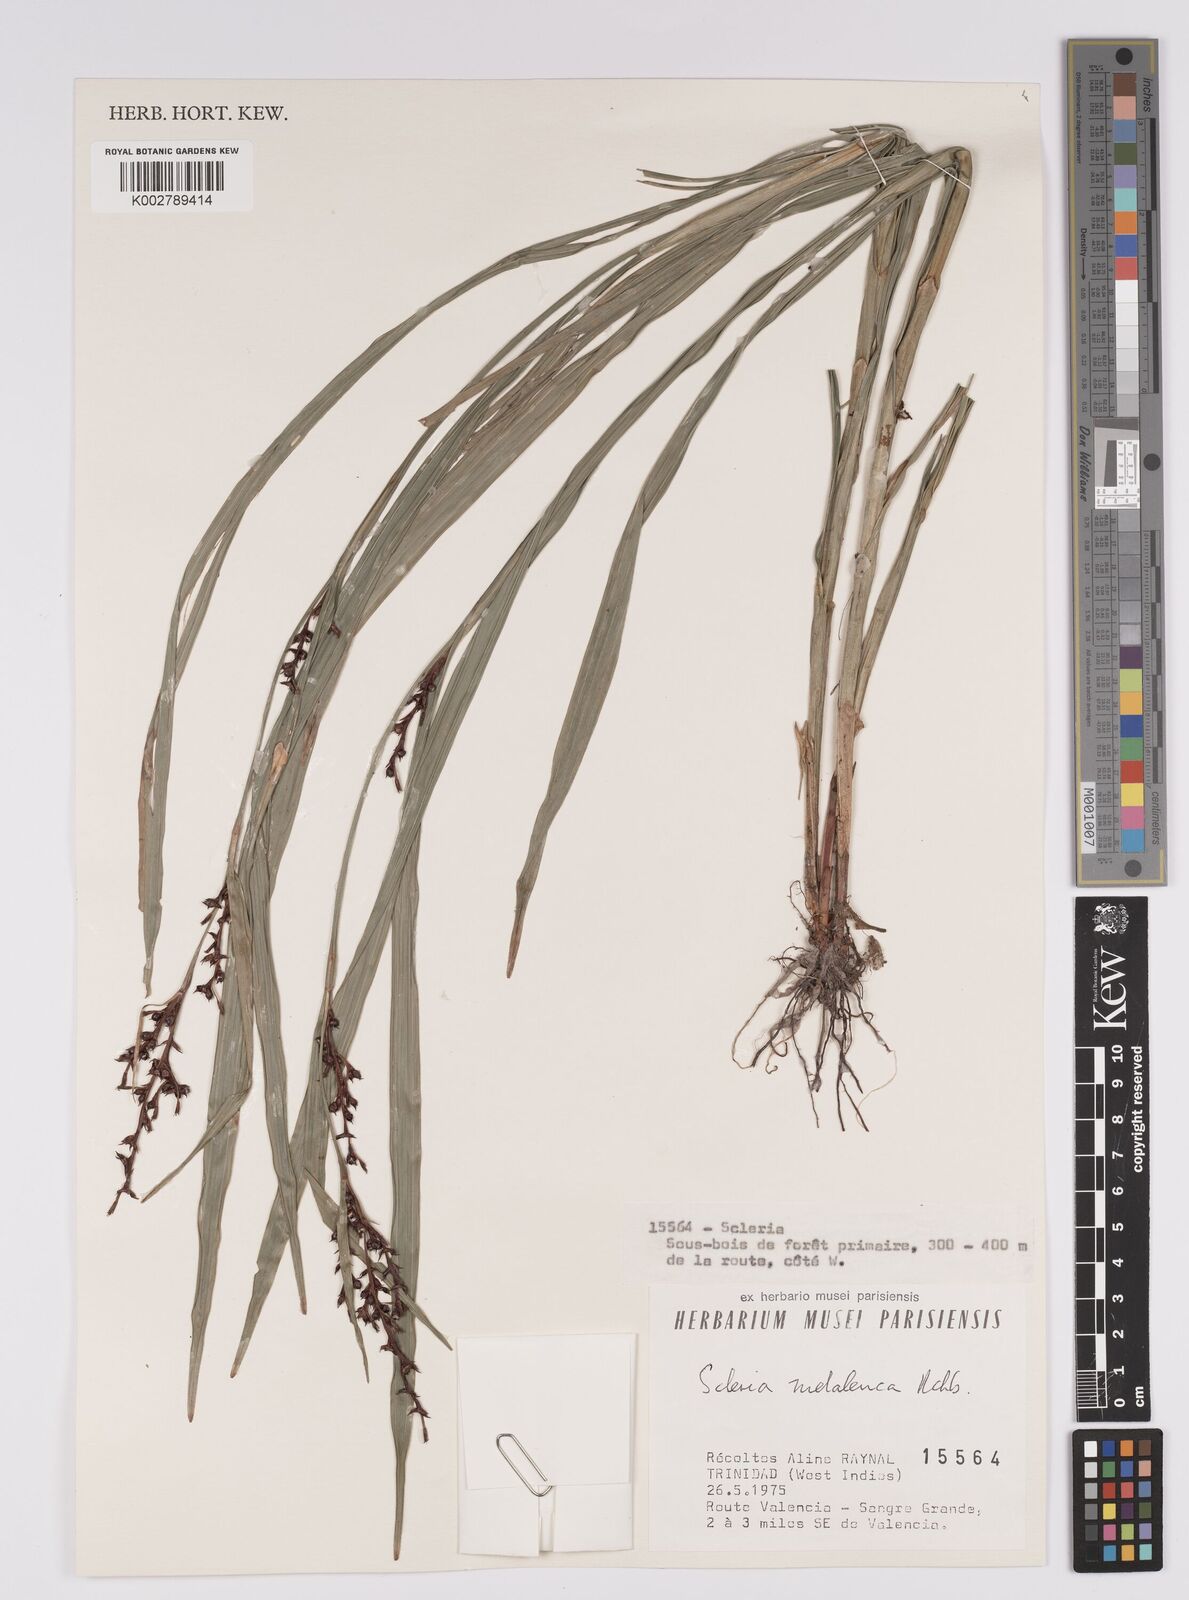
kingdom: Plantae
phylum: Tracheophyta
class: Liliopsida
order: Poales
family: Cyperaceae
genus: Scleria
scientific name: Scleria gaertneri
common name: Cortadera blanca
